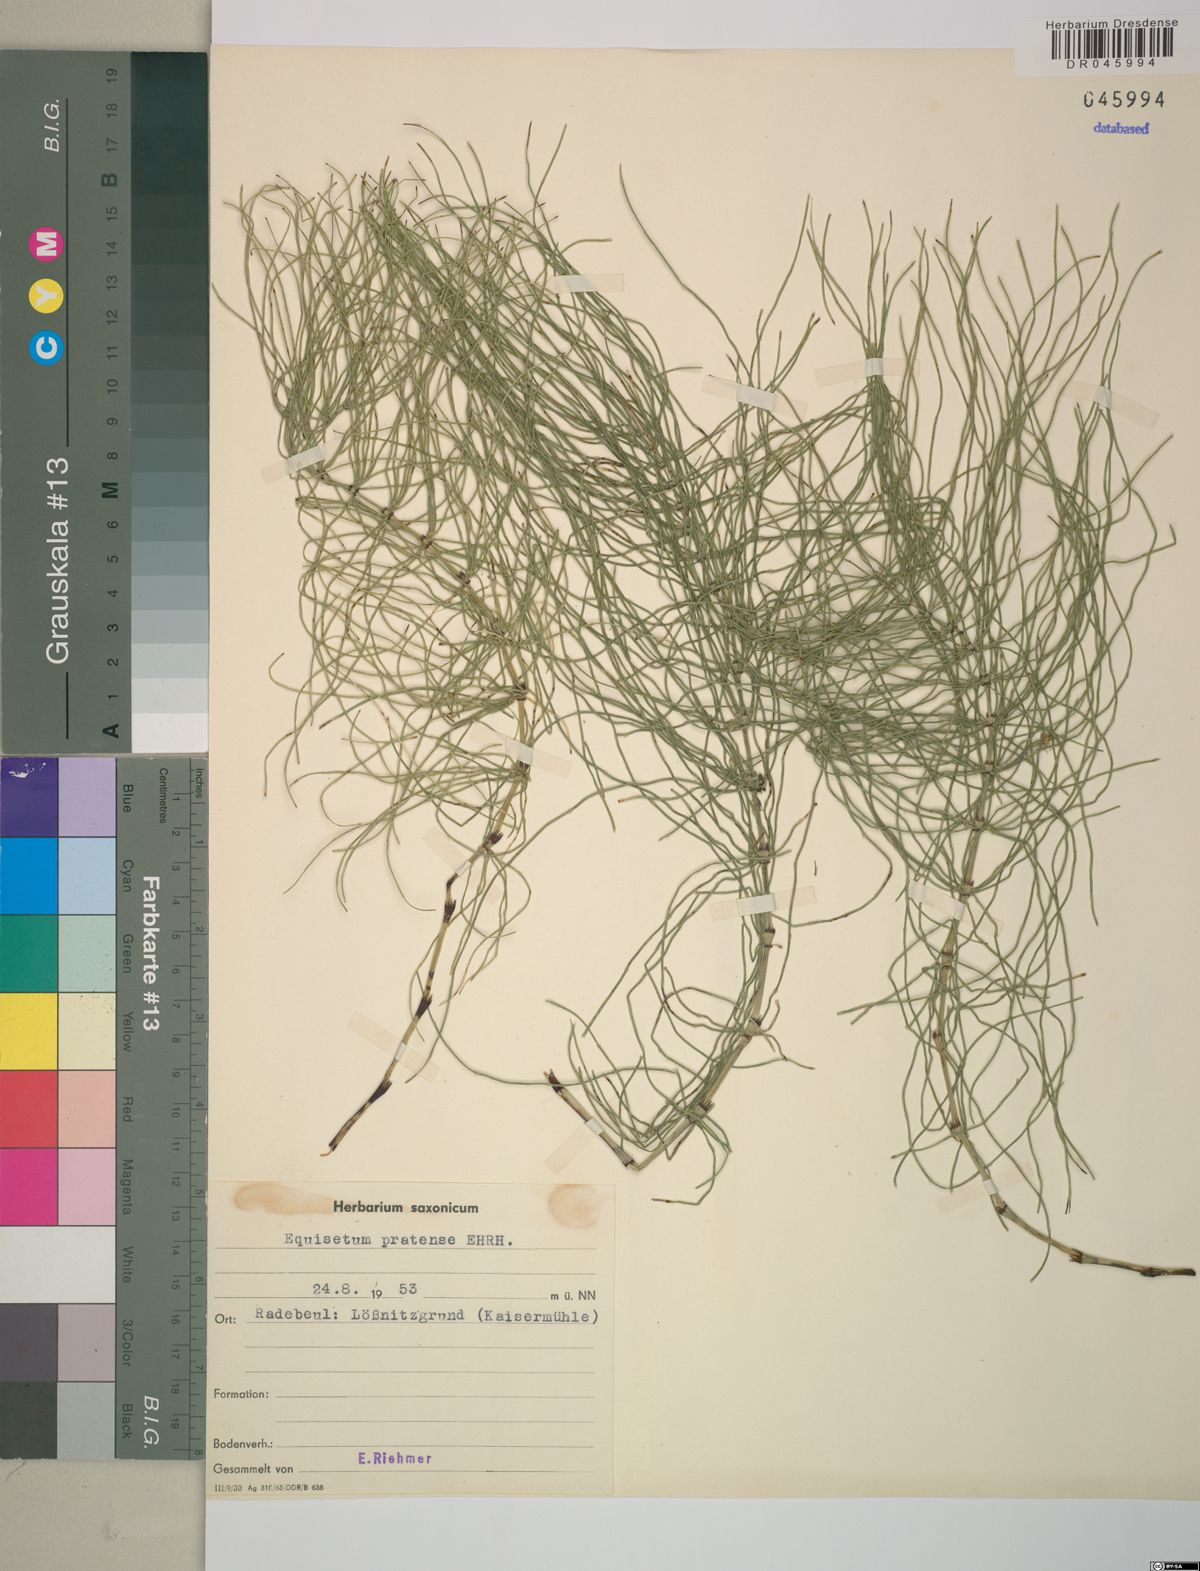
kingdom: Plantae
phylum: Tracheophyta
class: Polypodiopsida
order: Equisetales
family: Equisetaceae
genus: Equisetum
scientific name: Equisetum pratense
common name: Meadow horsetail
